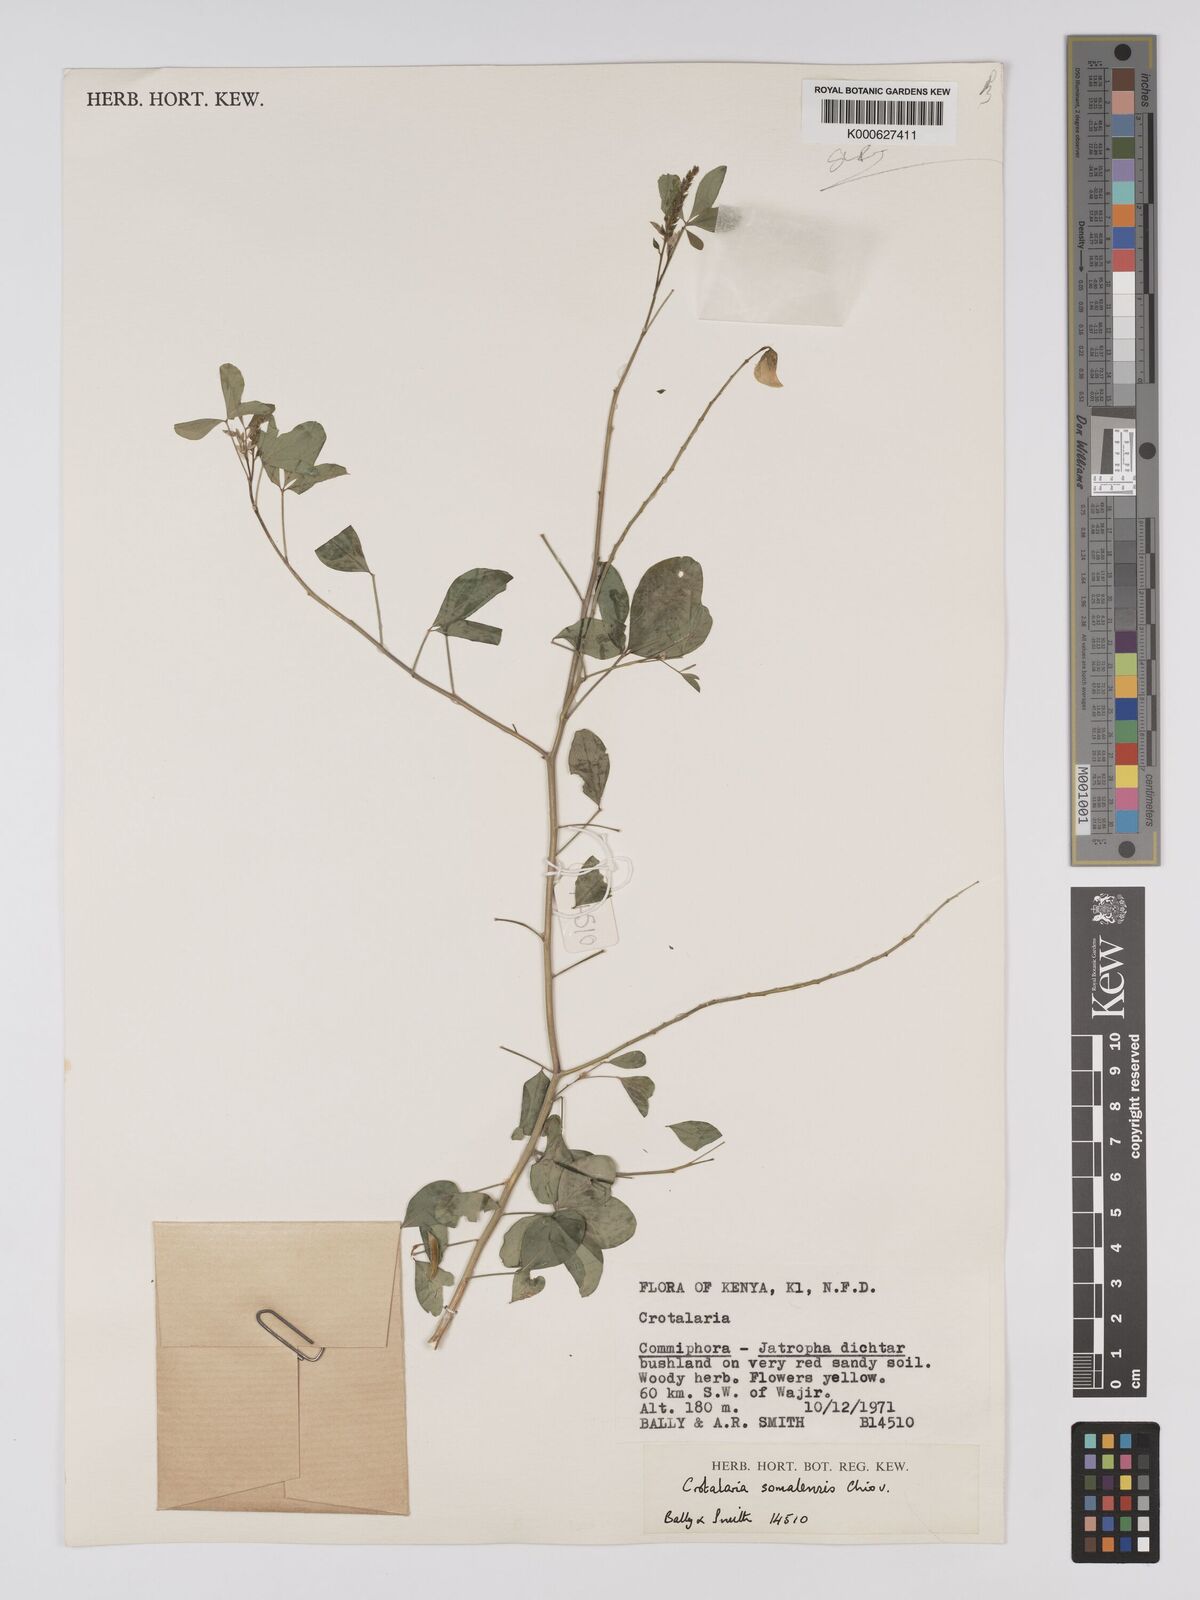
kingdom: Plantae
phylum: Tracheophyta
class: Magnoliopsida
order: Fabales
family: Fabaceae
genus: Crotalaria
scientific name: Crotalaria somalensis
